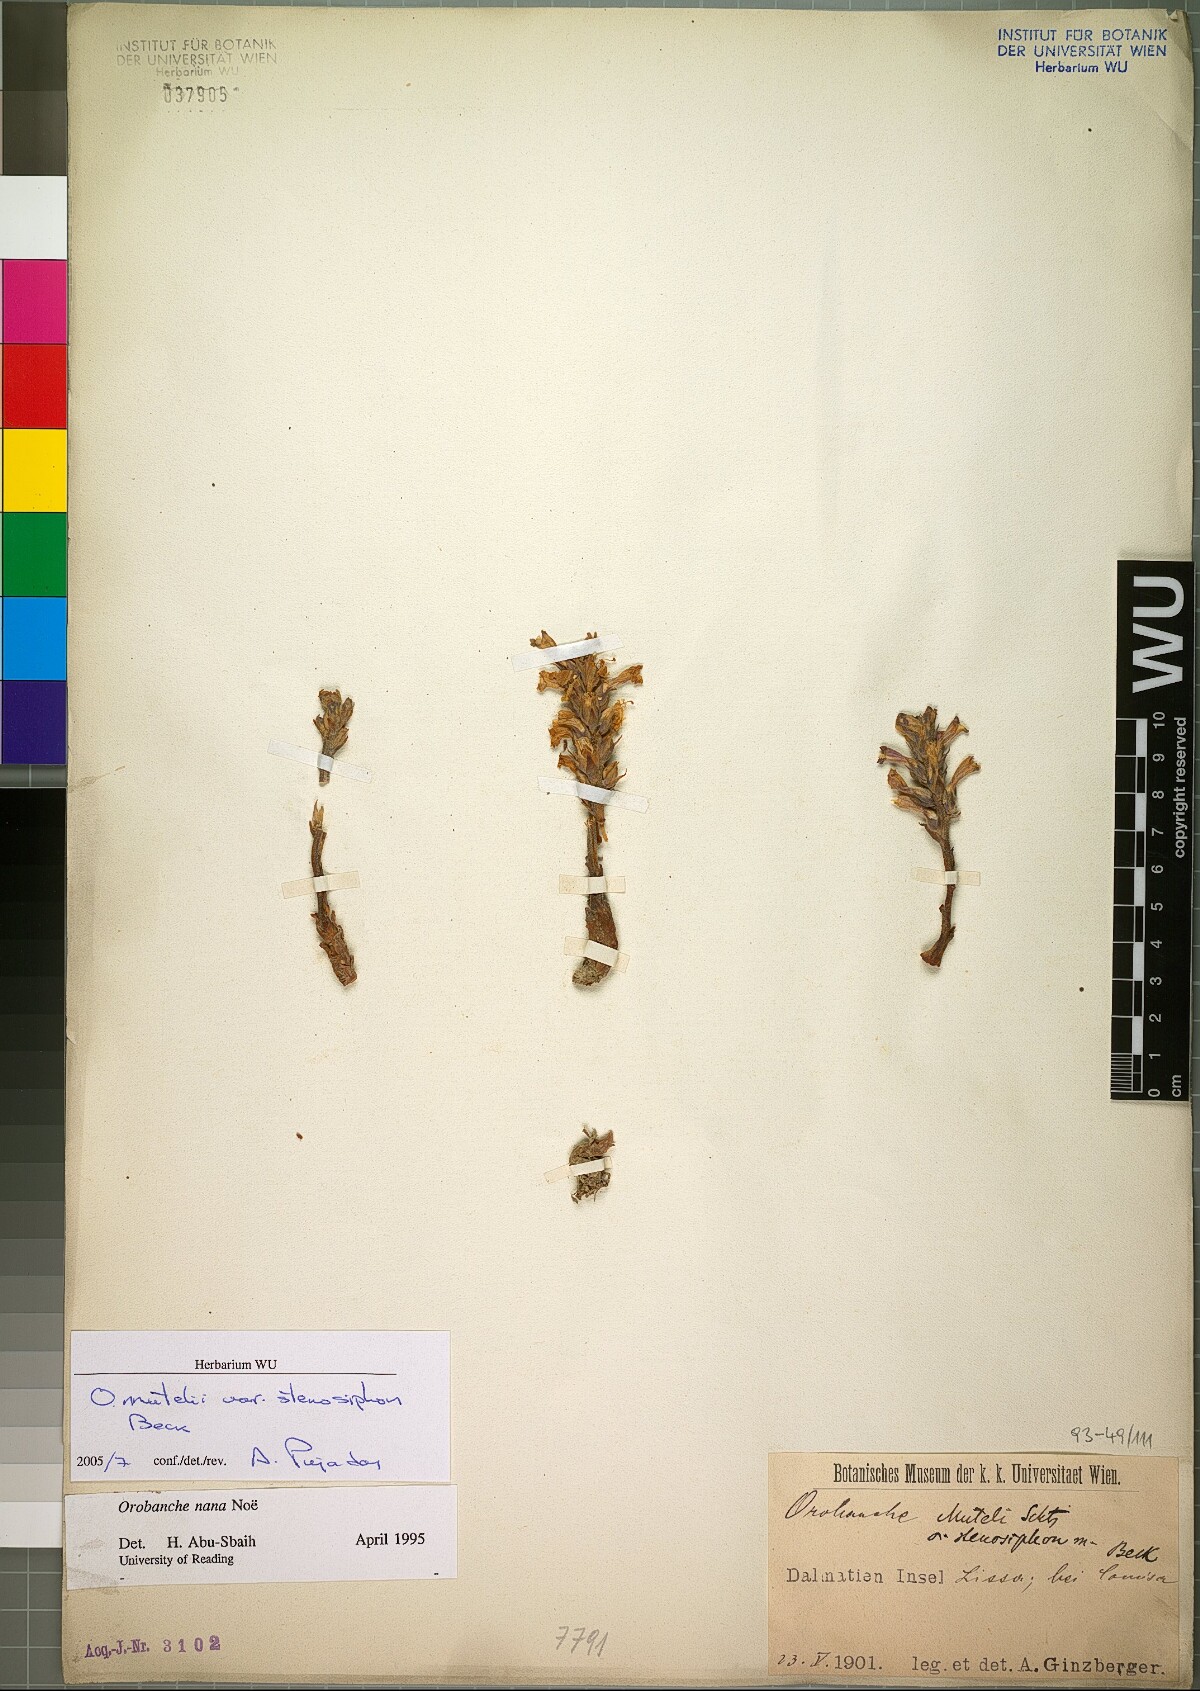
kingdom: Plantae
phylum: Tracheophyta
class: Magnoliopsida
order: Lamiales
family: Orobanchaceae
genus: Phelipanche
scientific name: Phelipanche pseudorosmarina
